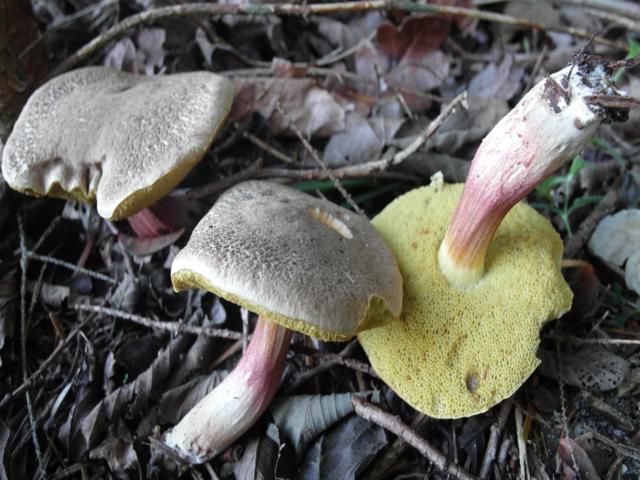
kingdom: Fungi
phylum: Basidiomycota
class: Agaricomycetes
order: Boletales
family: Boletaceae
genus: Xerocomellus
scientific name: Xerocomellus chrysenteron
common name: rødsprukken rørhat
